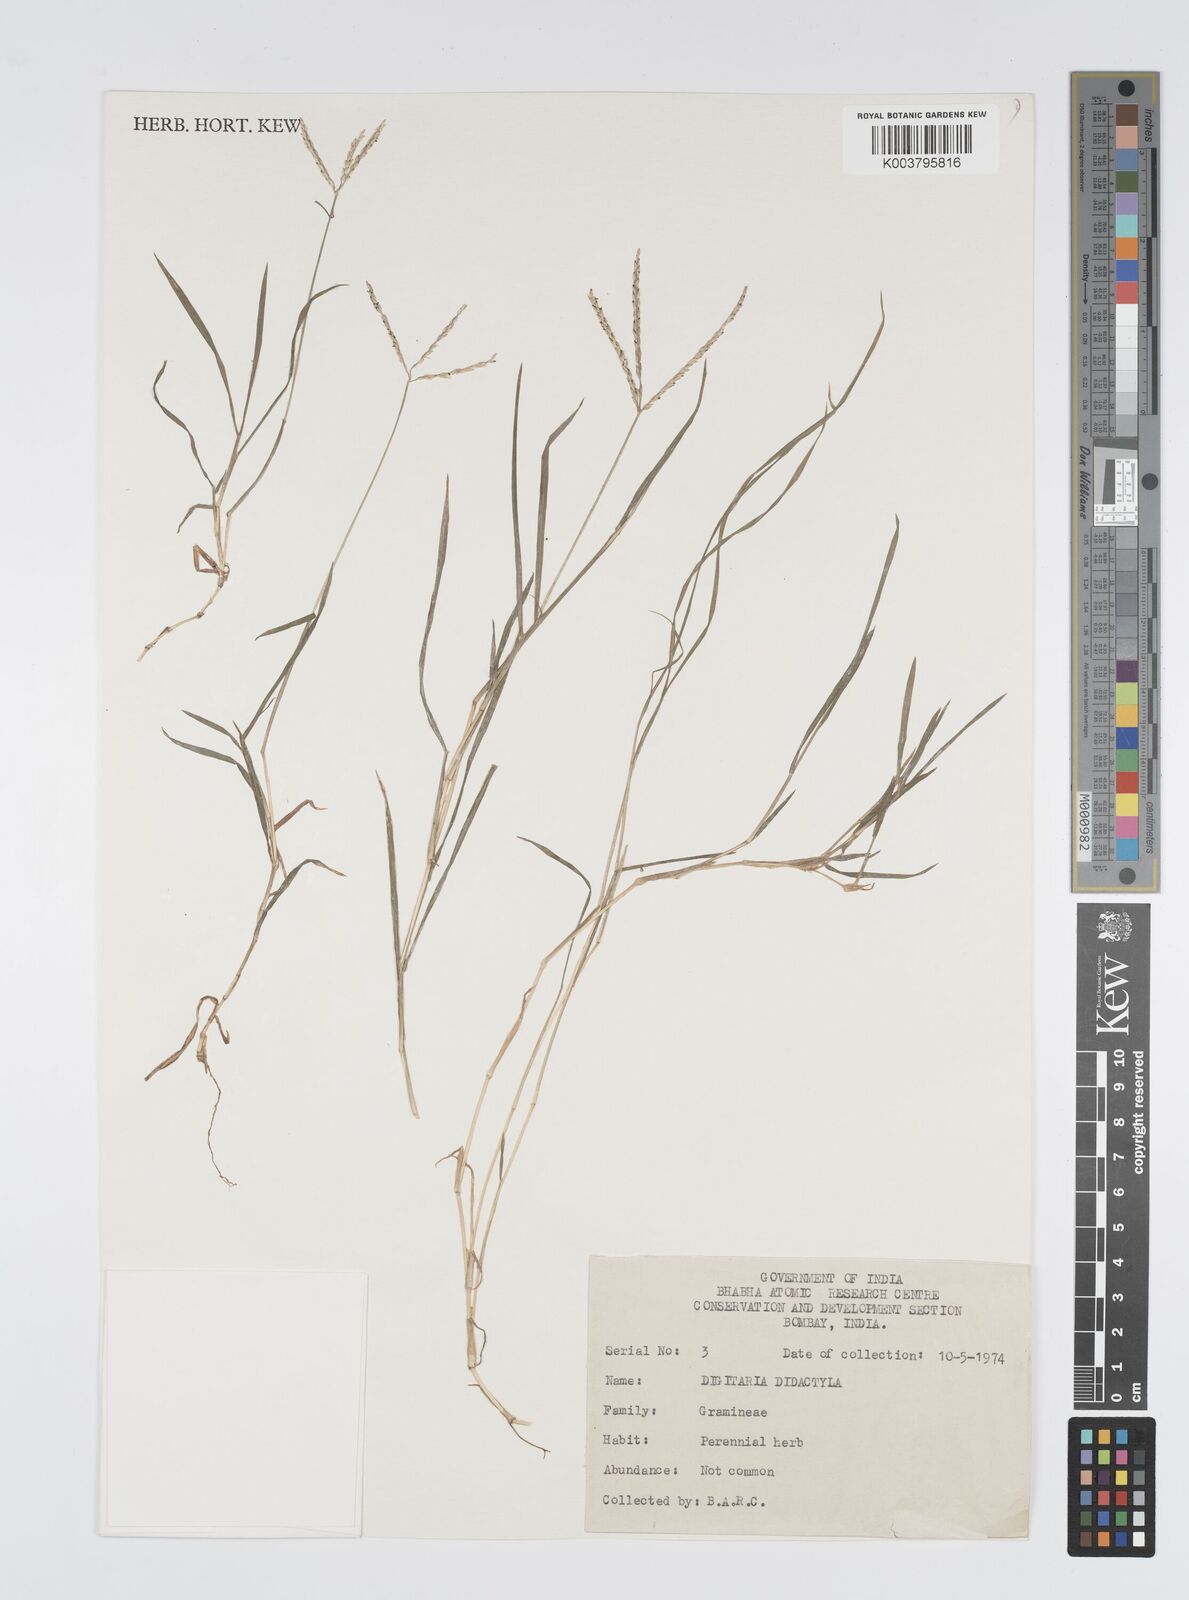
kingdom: Plantae
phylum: Tracheophyta
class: Liliopsida
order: Poales
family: Poaceae
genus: Digitaria
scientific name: Digitaria didactyla
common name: Blue couch
